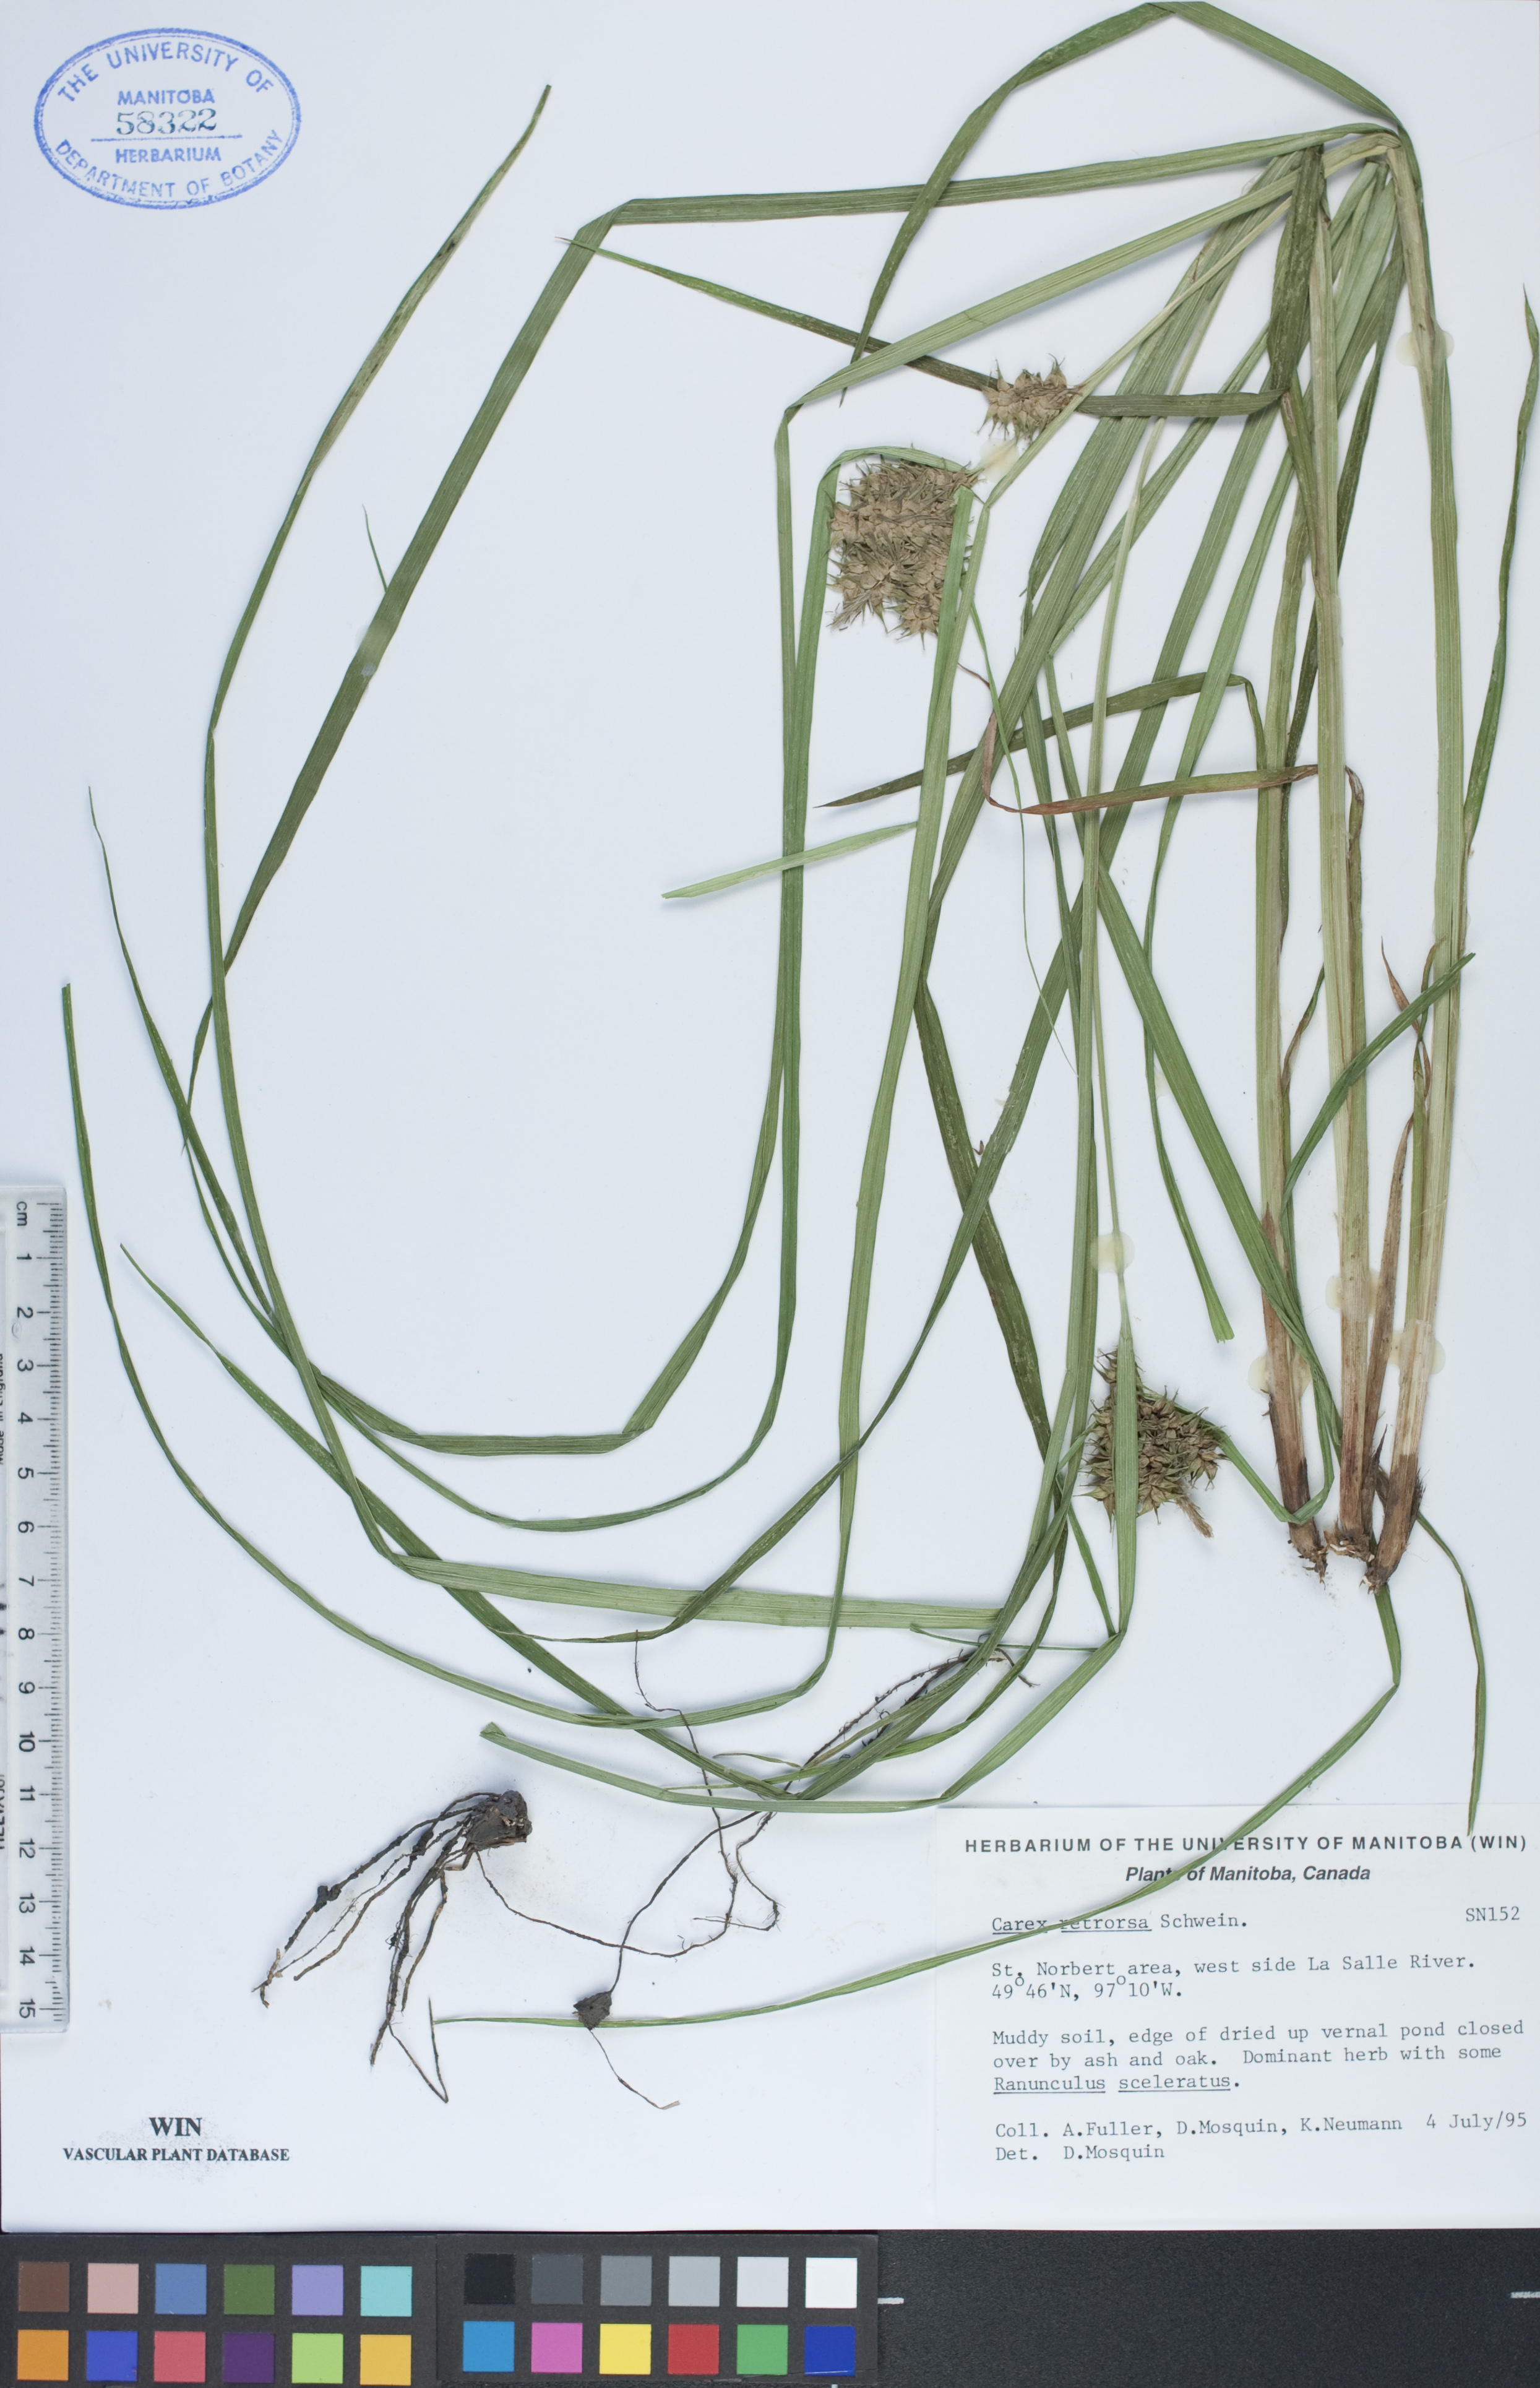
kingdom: Plantae
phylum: Tracheophyta
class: Liliopsida
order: Poales
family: Cyperaceae
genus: Carex
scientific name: Carex retrorsa
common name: Knot-sheath sedge
